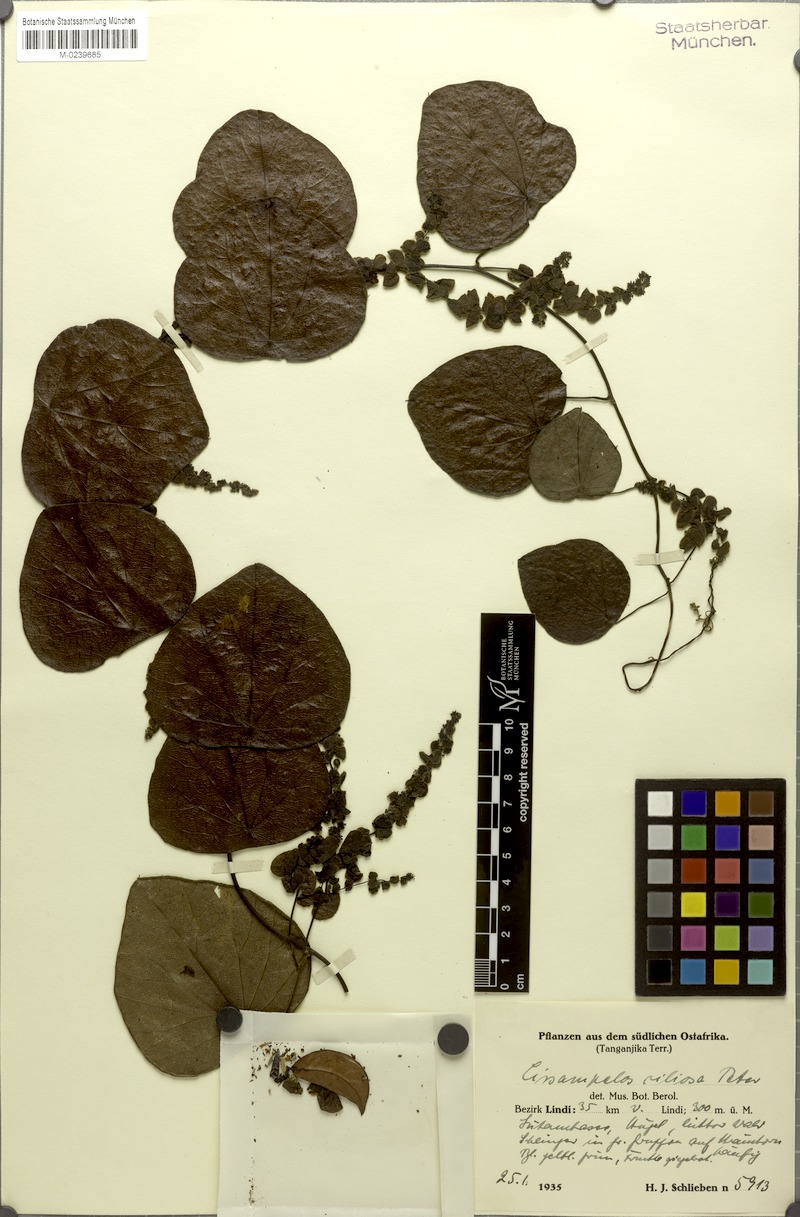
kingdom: Plantae
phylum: Tracheophyta
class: Magnoliopsida
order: Ranunculales
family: Menispermaceae
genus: Cissampelos
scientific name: Cissampelos nigrescens
